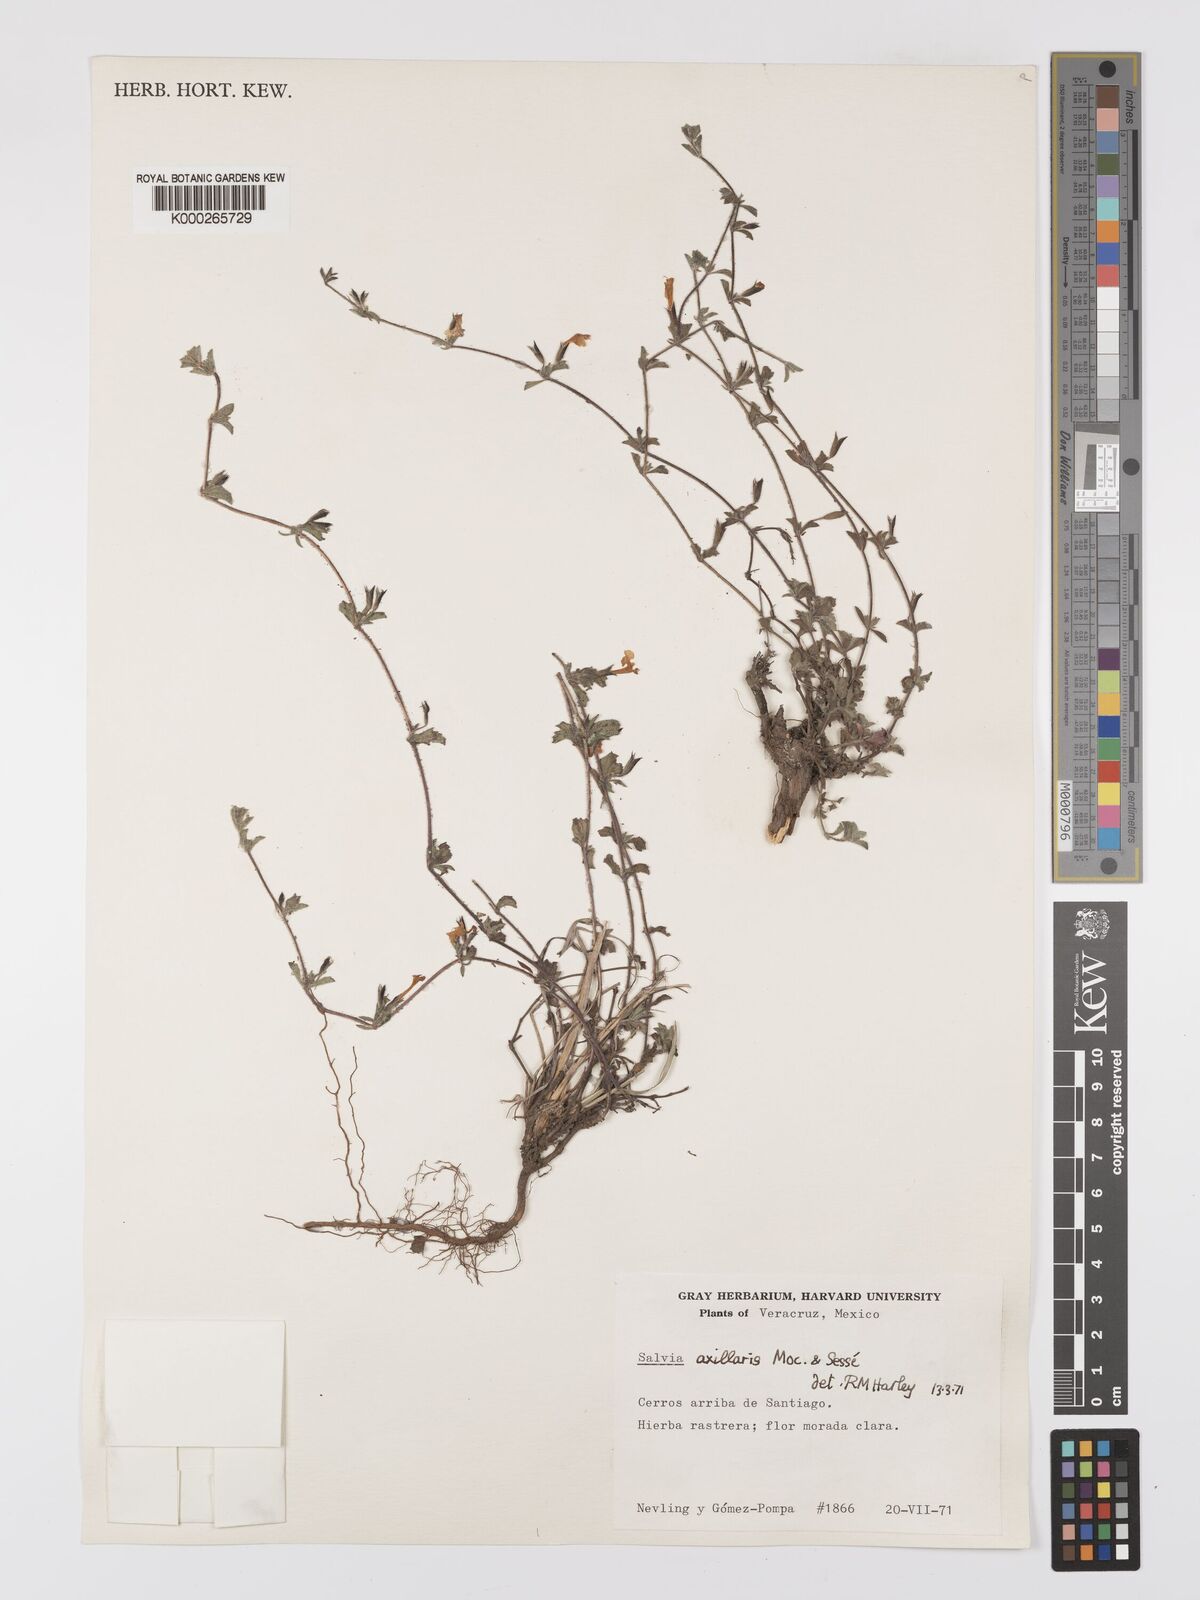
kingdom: Plantae
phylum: Tracheophyta
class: Magnoliopsida
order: Lamiales
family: Lamiaceae
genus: Salvia
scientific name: Salvia
